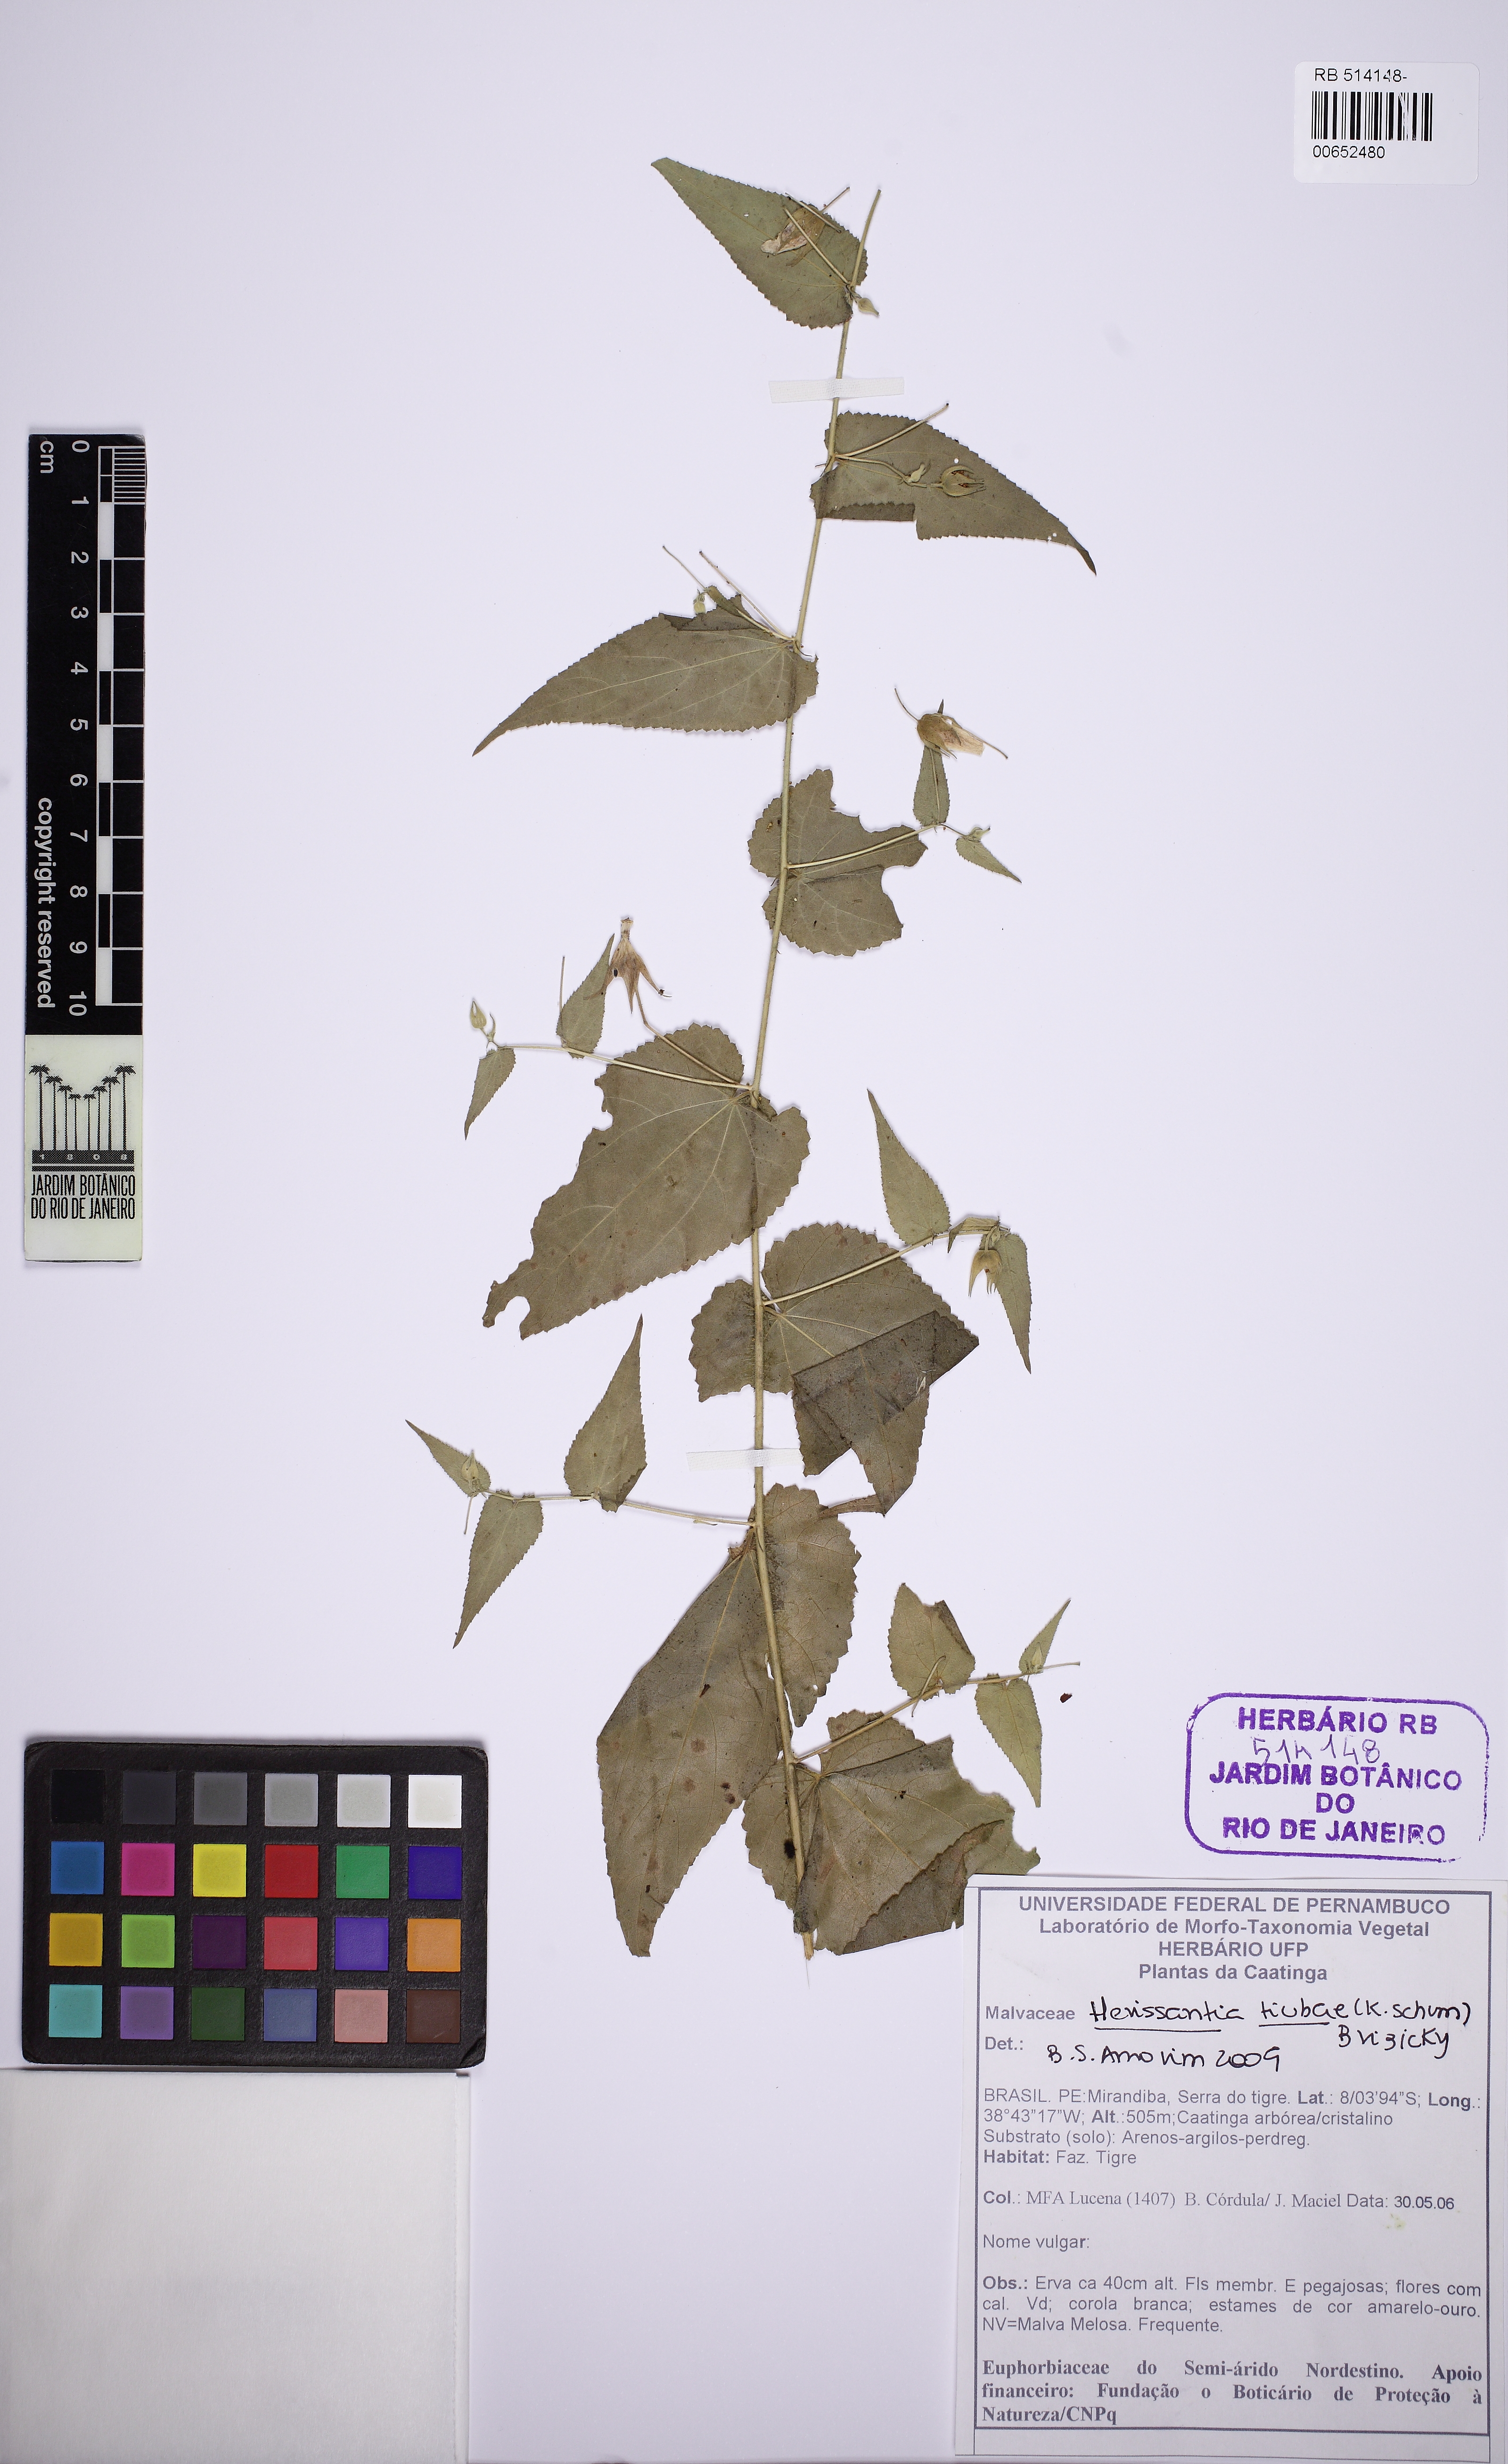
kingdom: Plantae
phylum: Tracheophyta
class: Magnoliopsida
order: Malvales
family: Malvaceae
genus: Herissantia
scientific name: Herissantia tiubae
